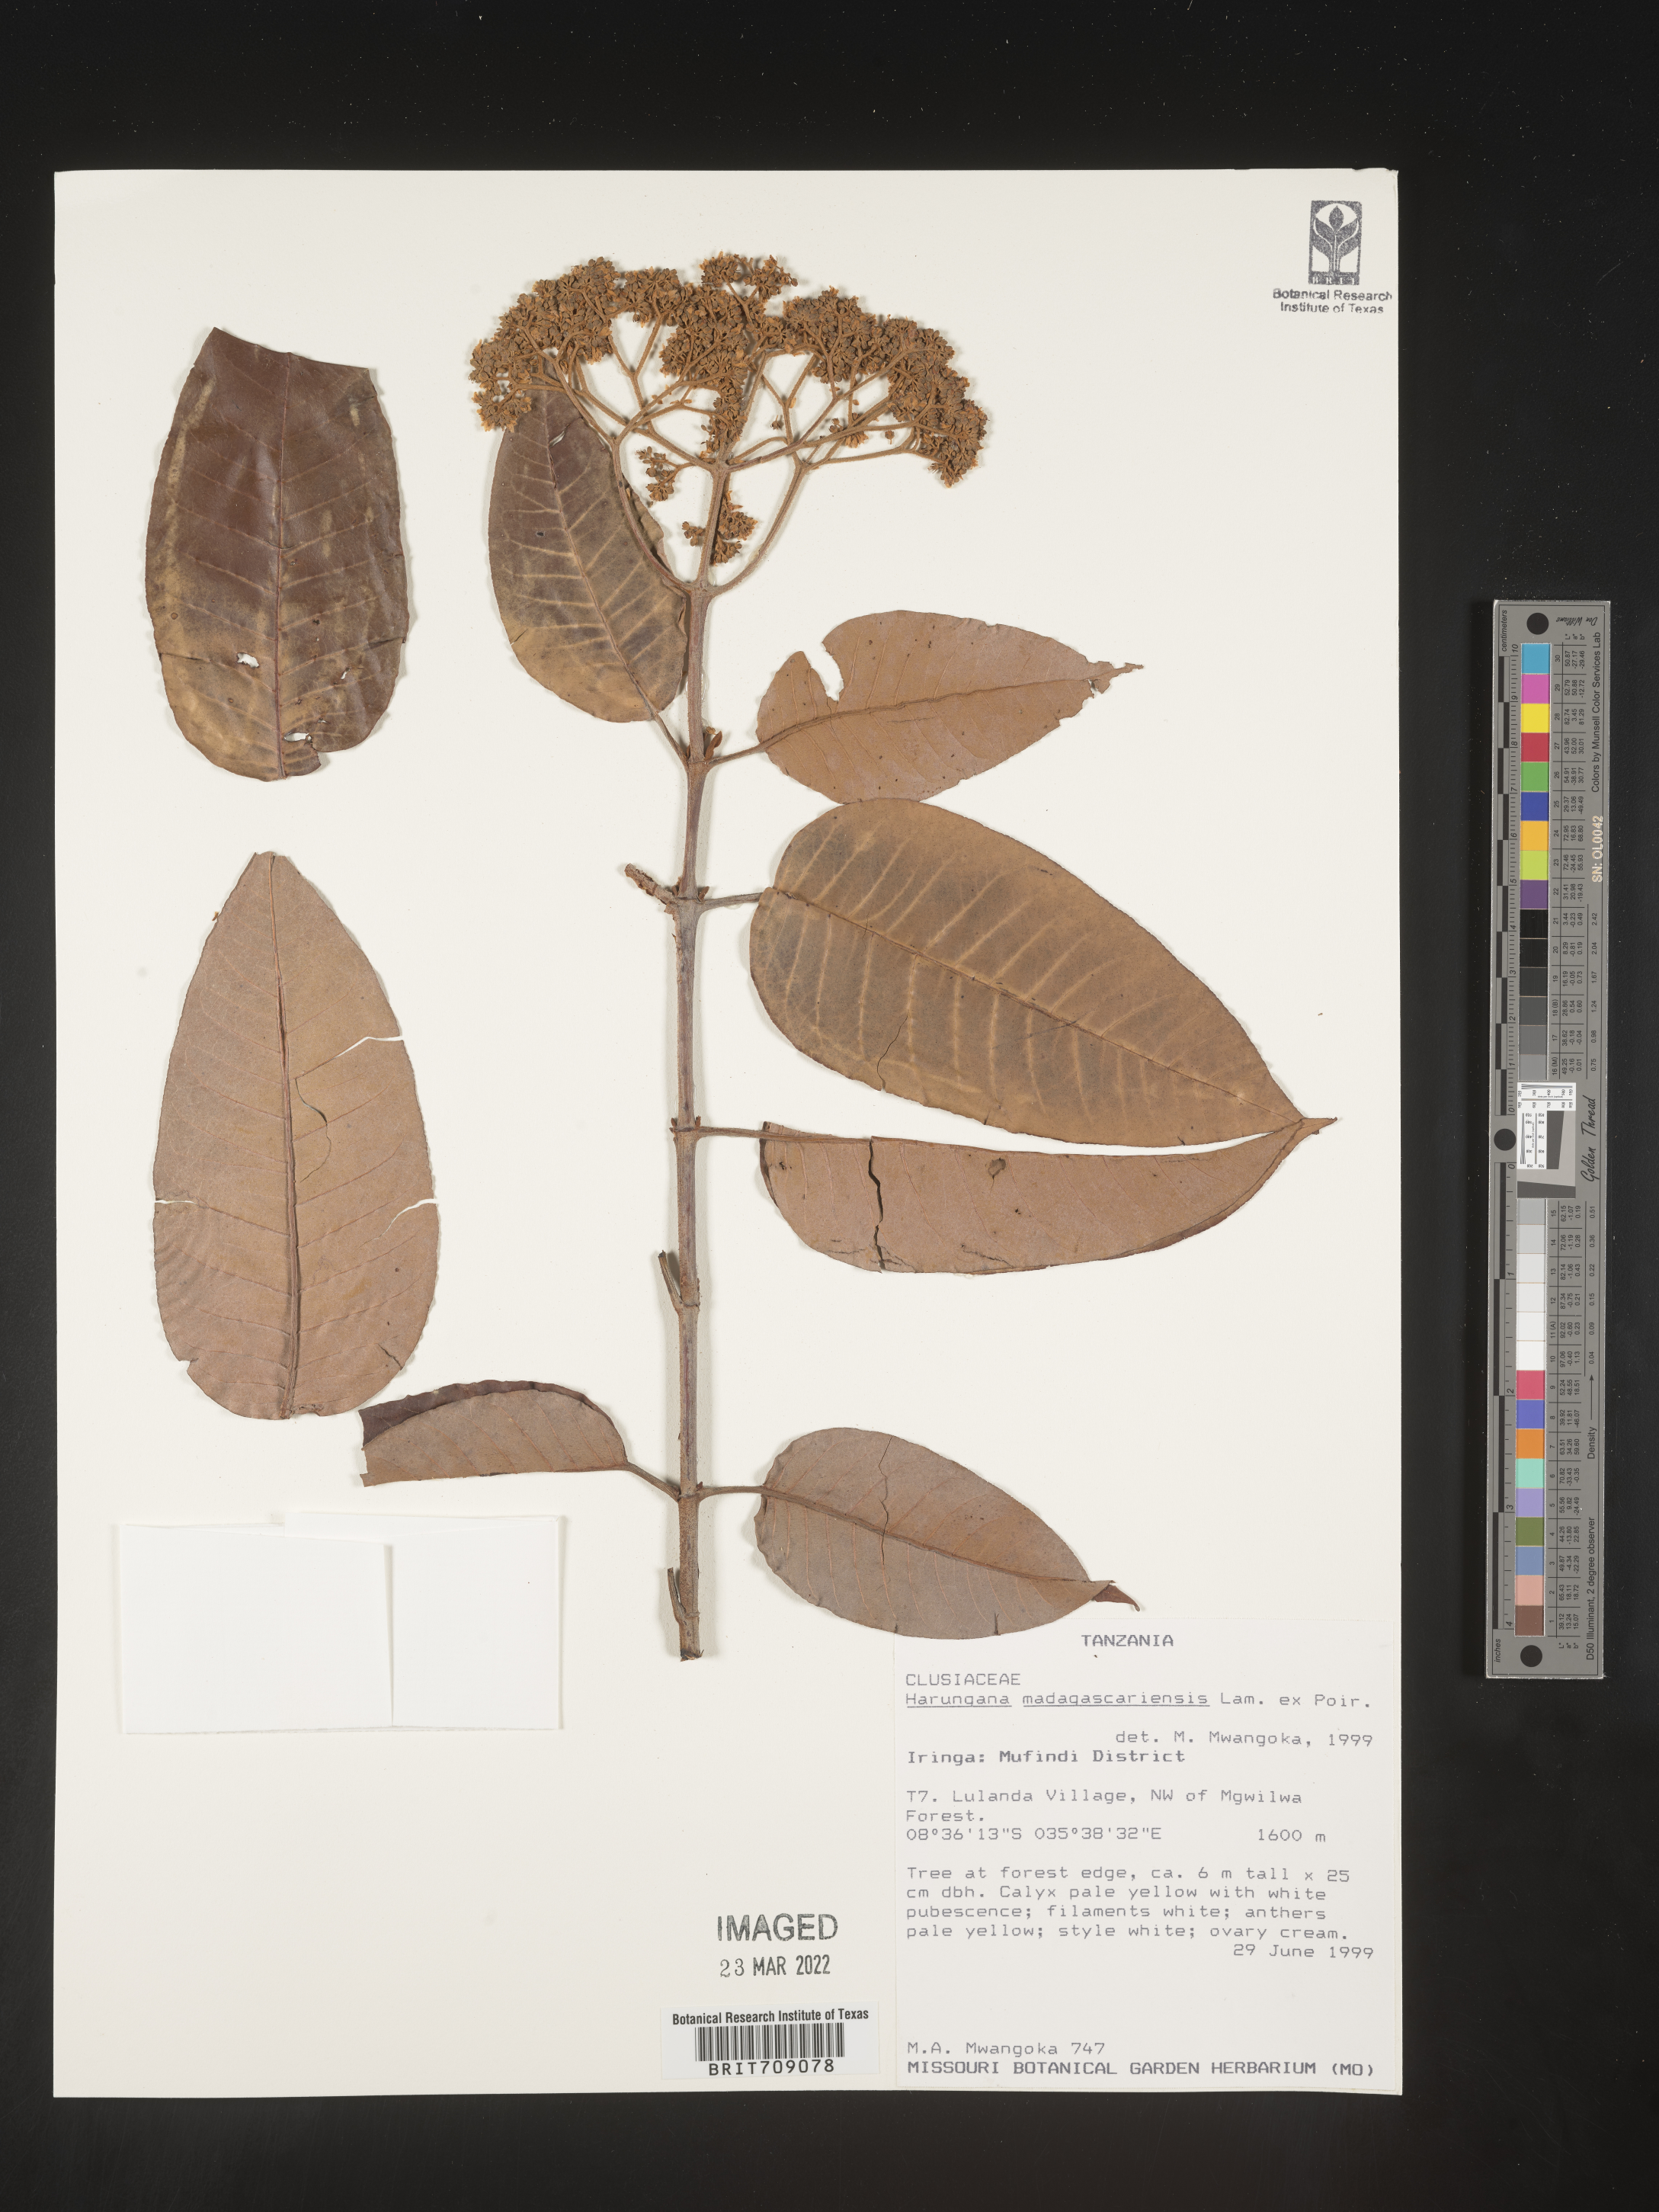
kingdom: Plantae
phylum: Tracheophyta
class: Magnoliopsida
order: Malpighiales
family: Hypericaceae
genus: Harungana
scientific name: Harungana
